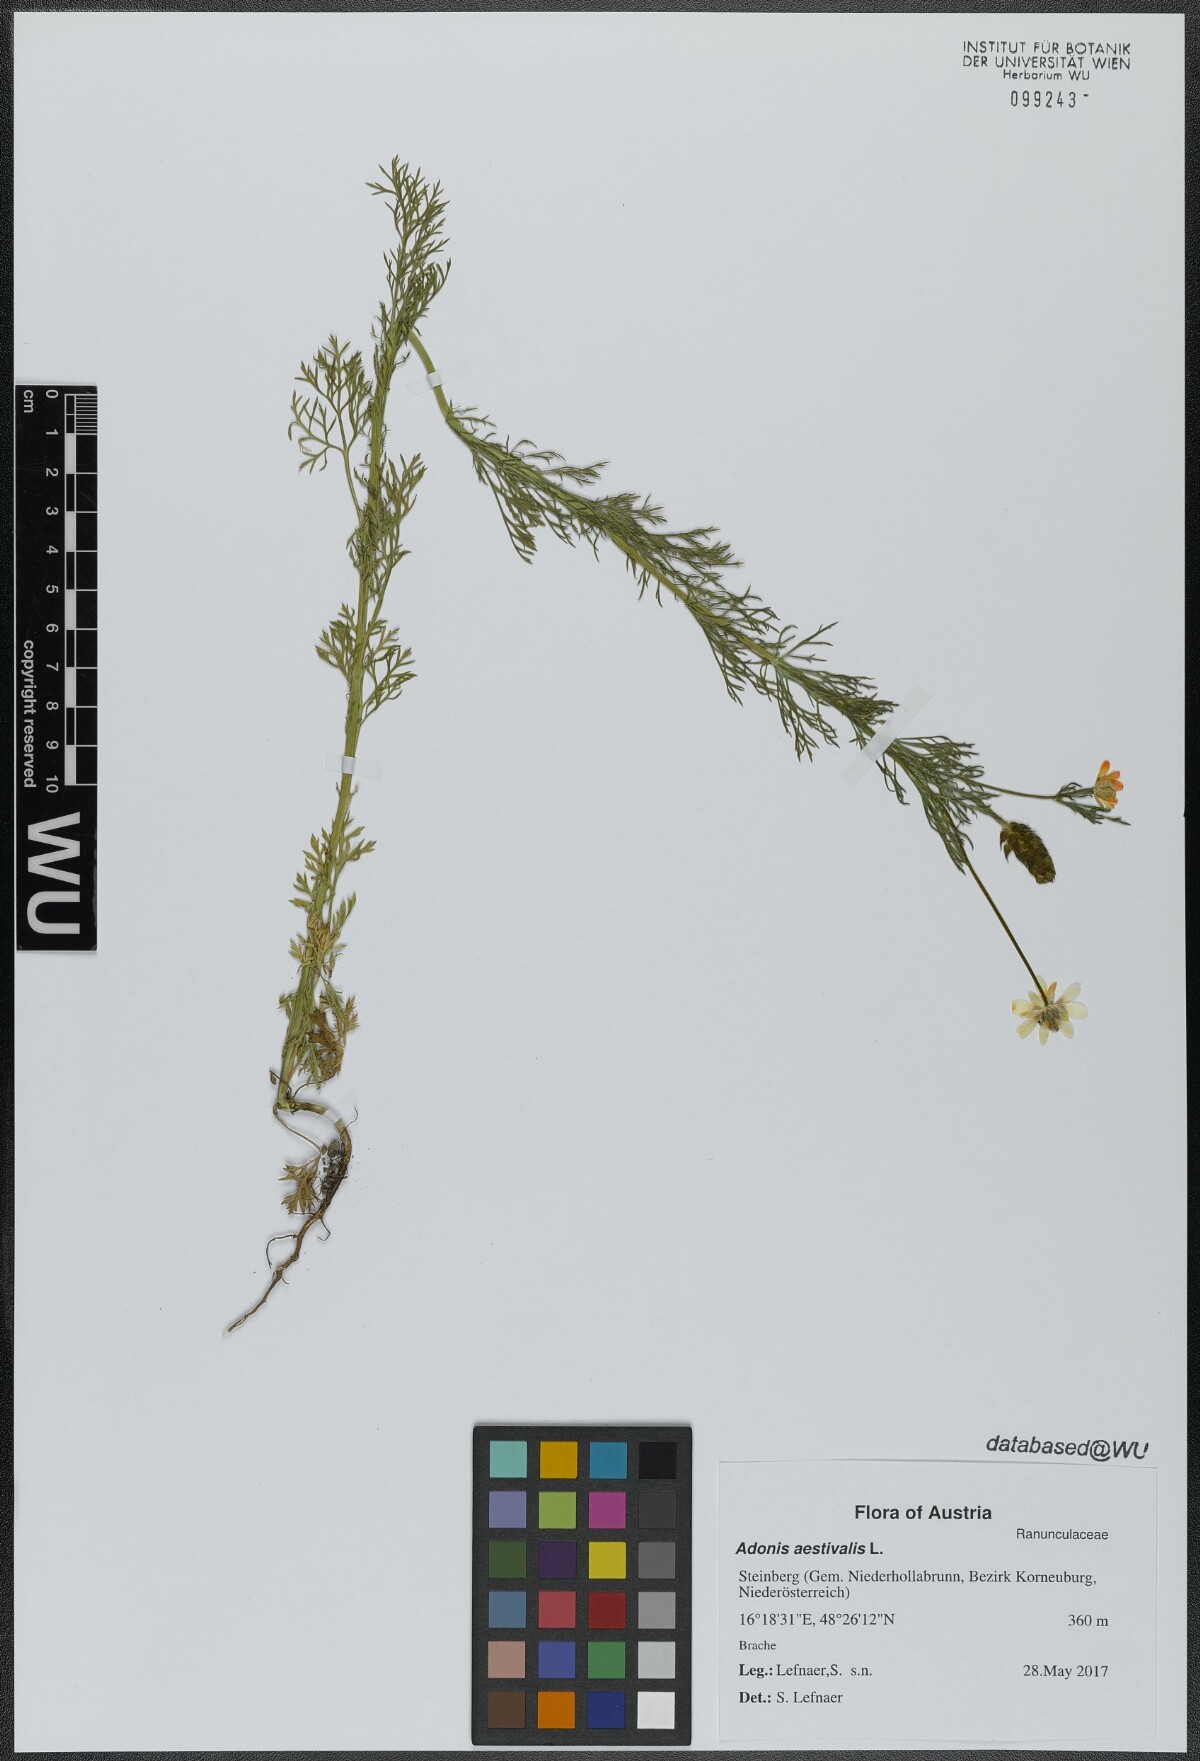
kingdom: Plantae
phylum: Tracheophyta
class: Magnoliopsida
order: Ranunculales
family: Ranunculaceae
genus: Adonis
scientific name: Adonis aestivalis
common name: Summer pheasant's-eye
